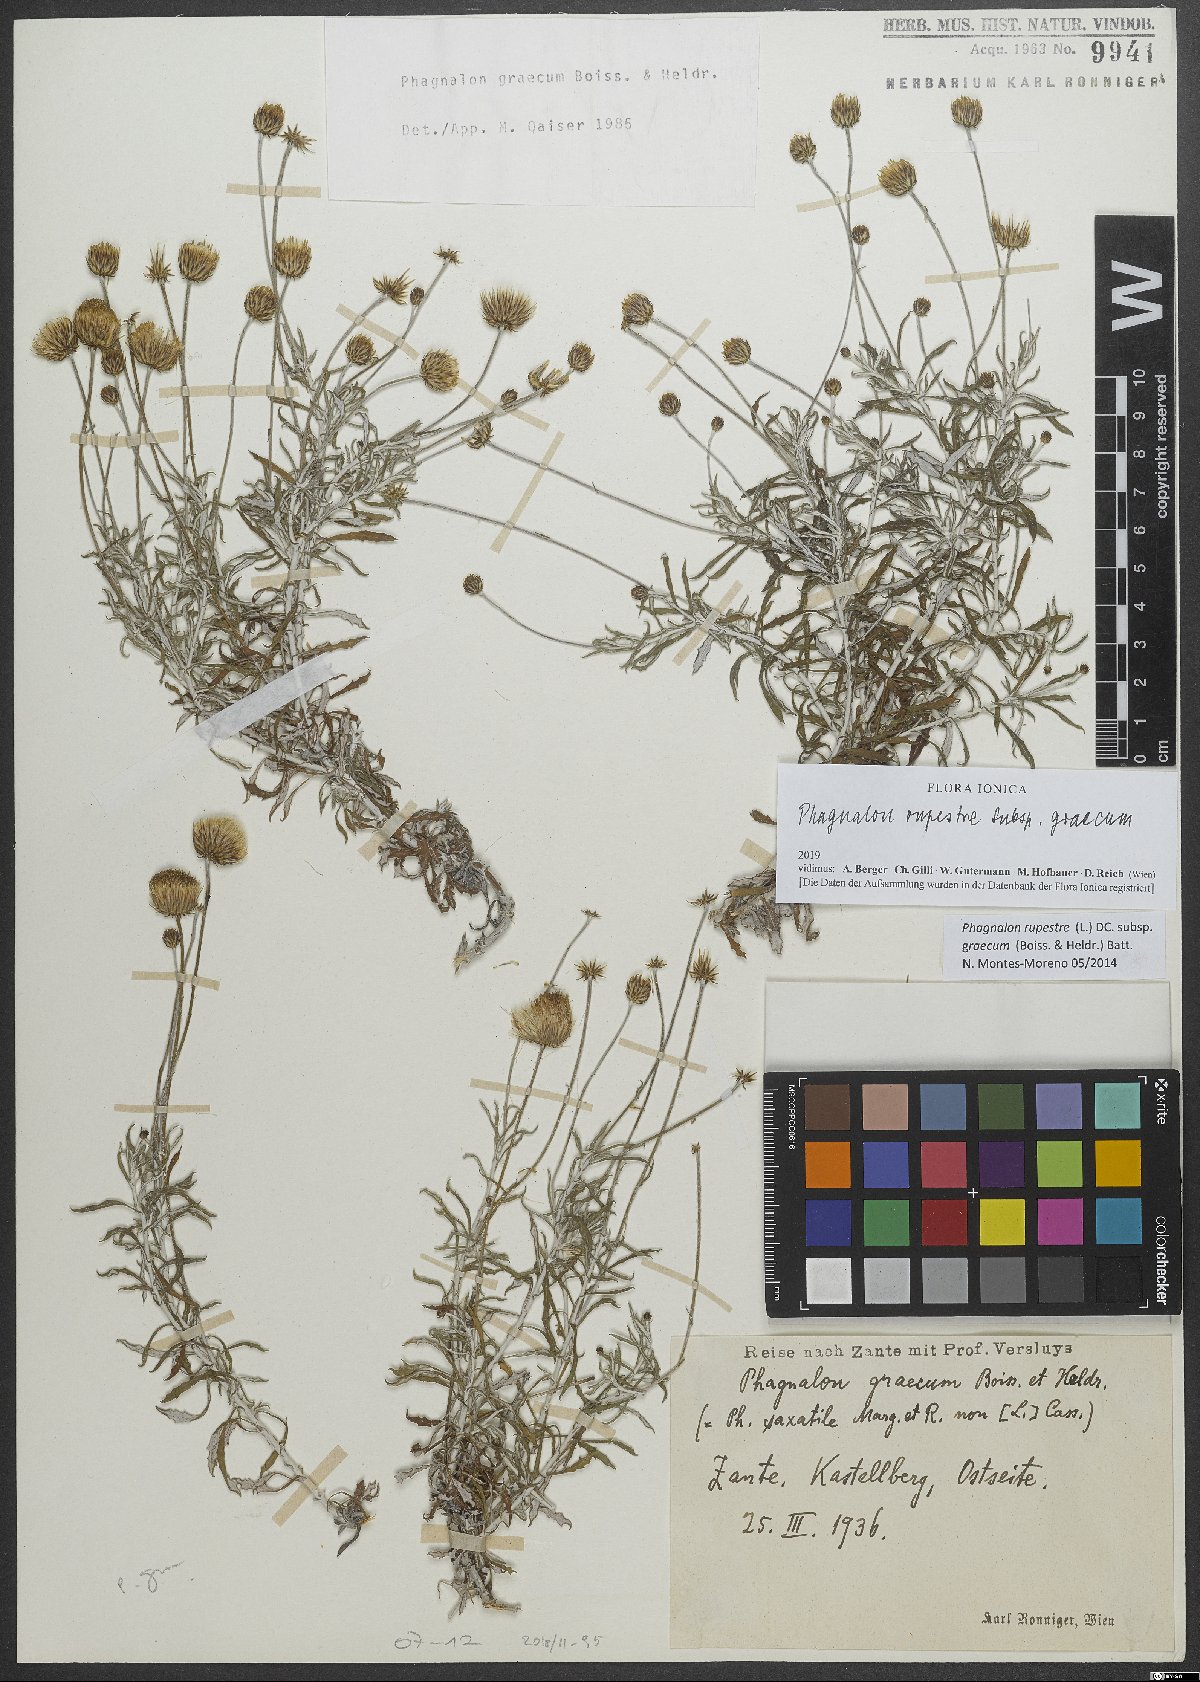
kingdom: Plantae
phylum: Tracheophyta
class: Magnoliopsida
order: Asterales
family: Asteraceae
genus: Phagnalon
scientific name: Phagnalon graecum
